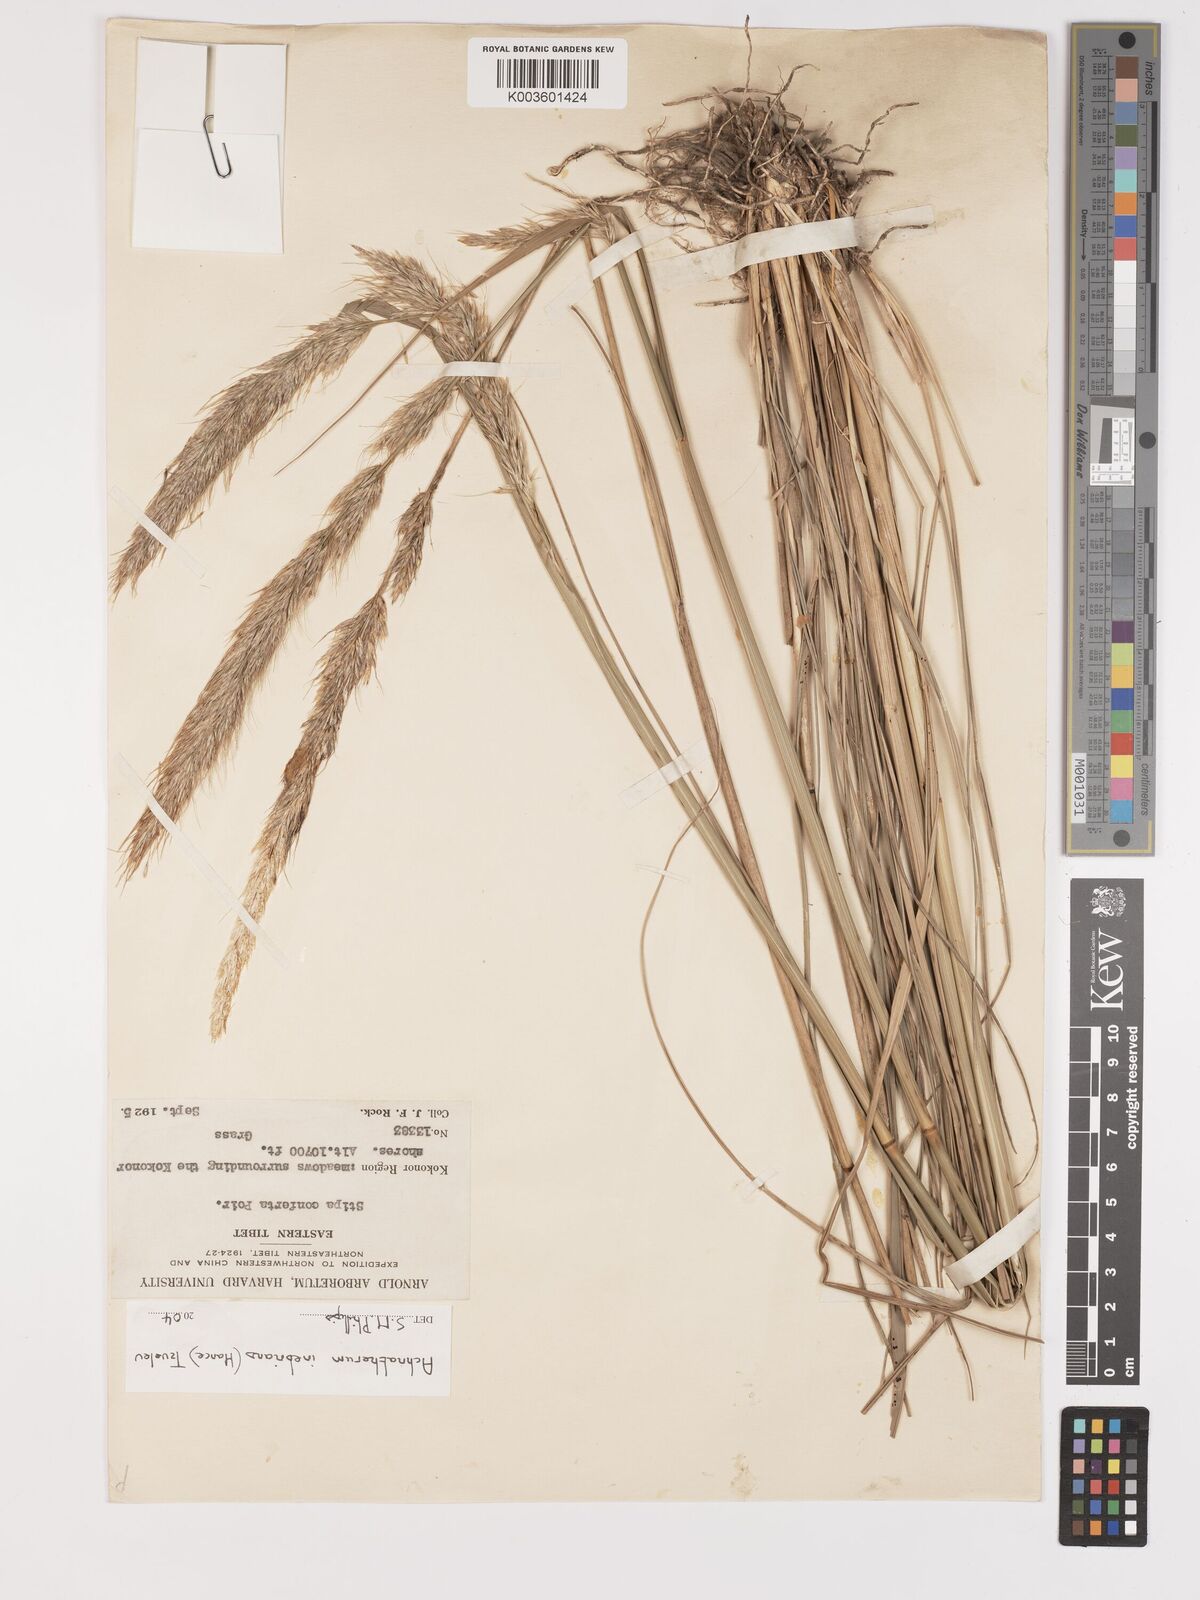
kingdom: Plantae
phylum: Tracheophyta
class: Liliopsida
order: Poales
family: Poaceae
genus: Achnatherum
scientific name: Achnatherum inebrians
